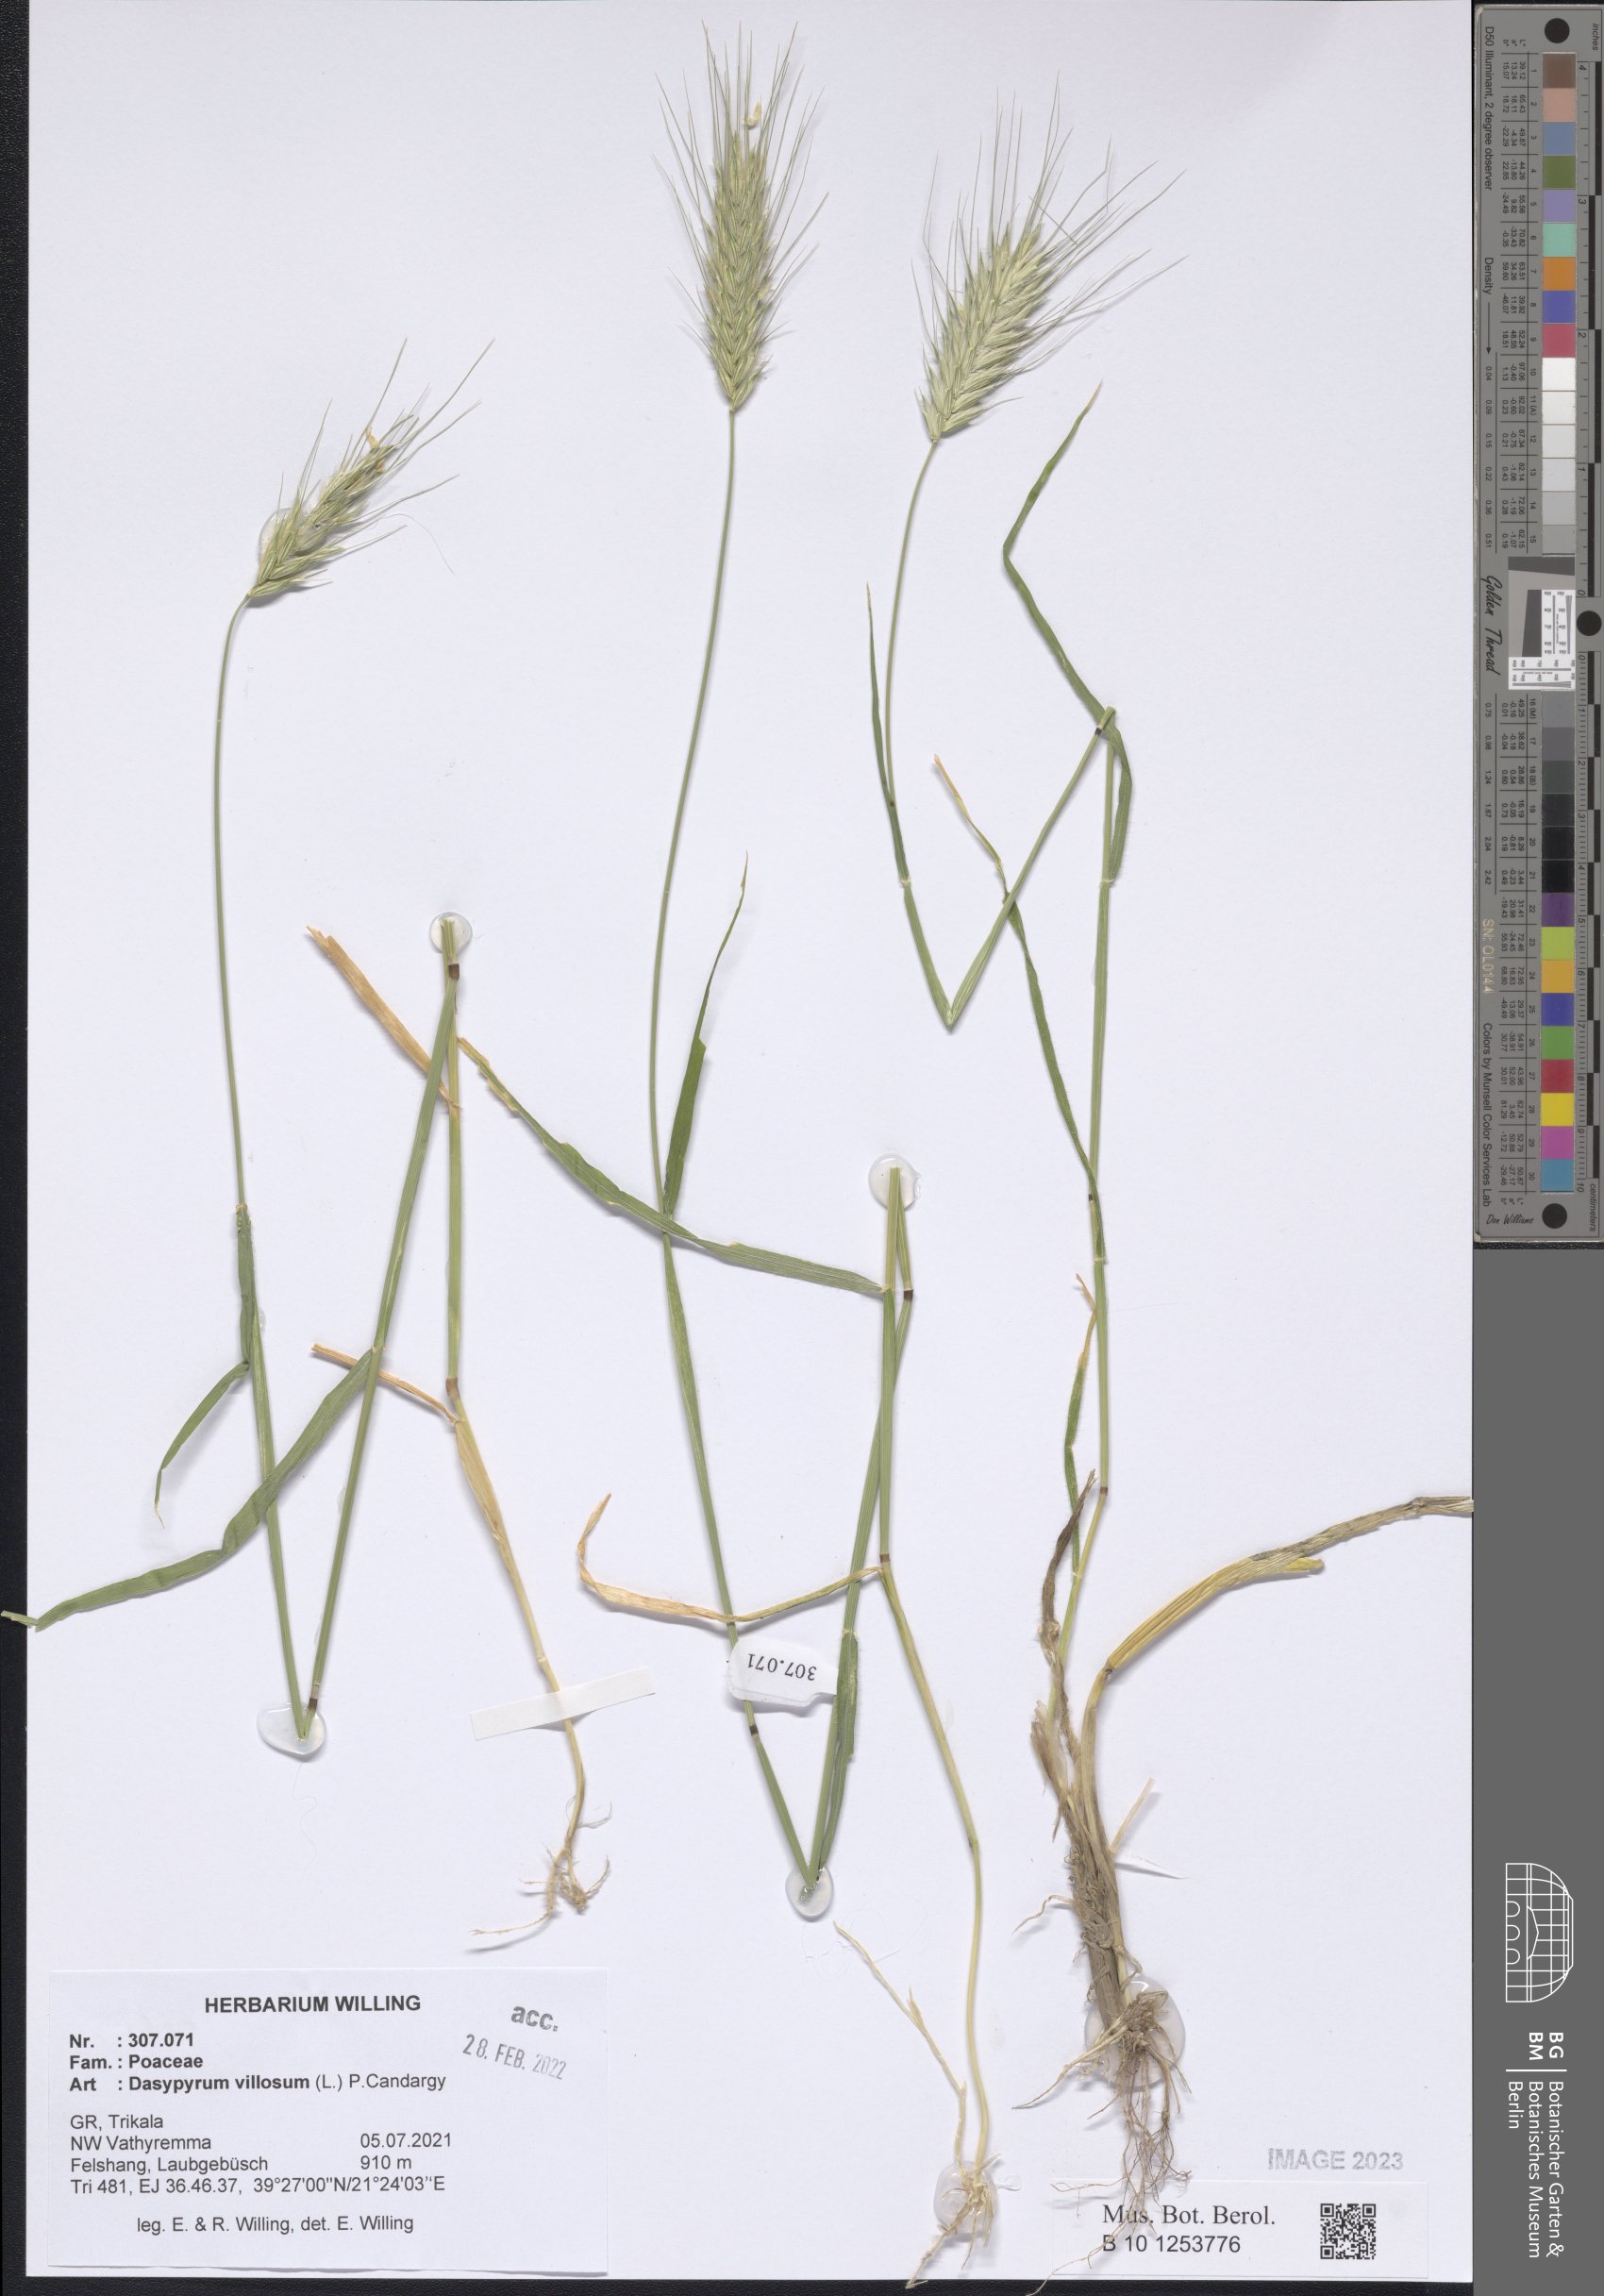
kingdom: Plantae
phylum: Tracheophyta
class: Liliopsida
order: Poales
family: Poaceae
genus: Dasypyrum
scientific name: Dasypyrum villosum
